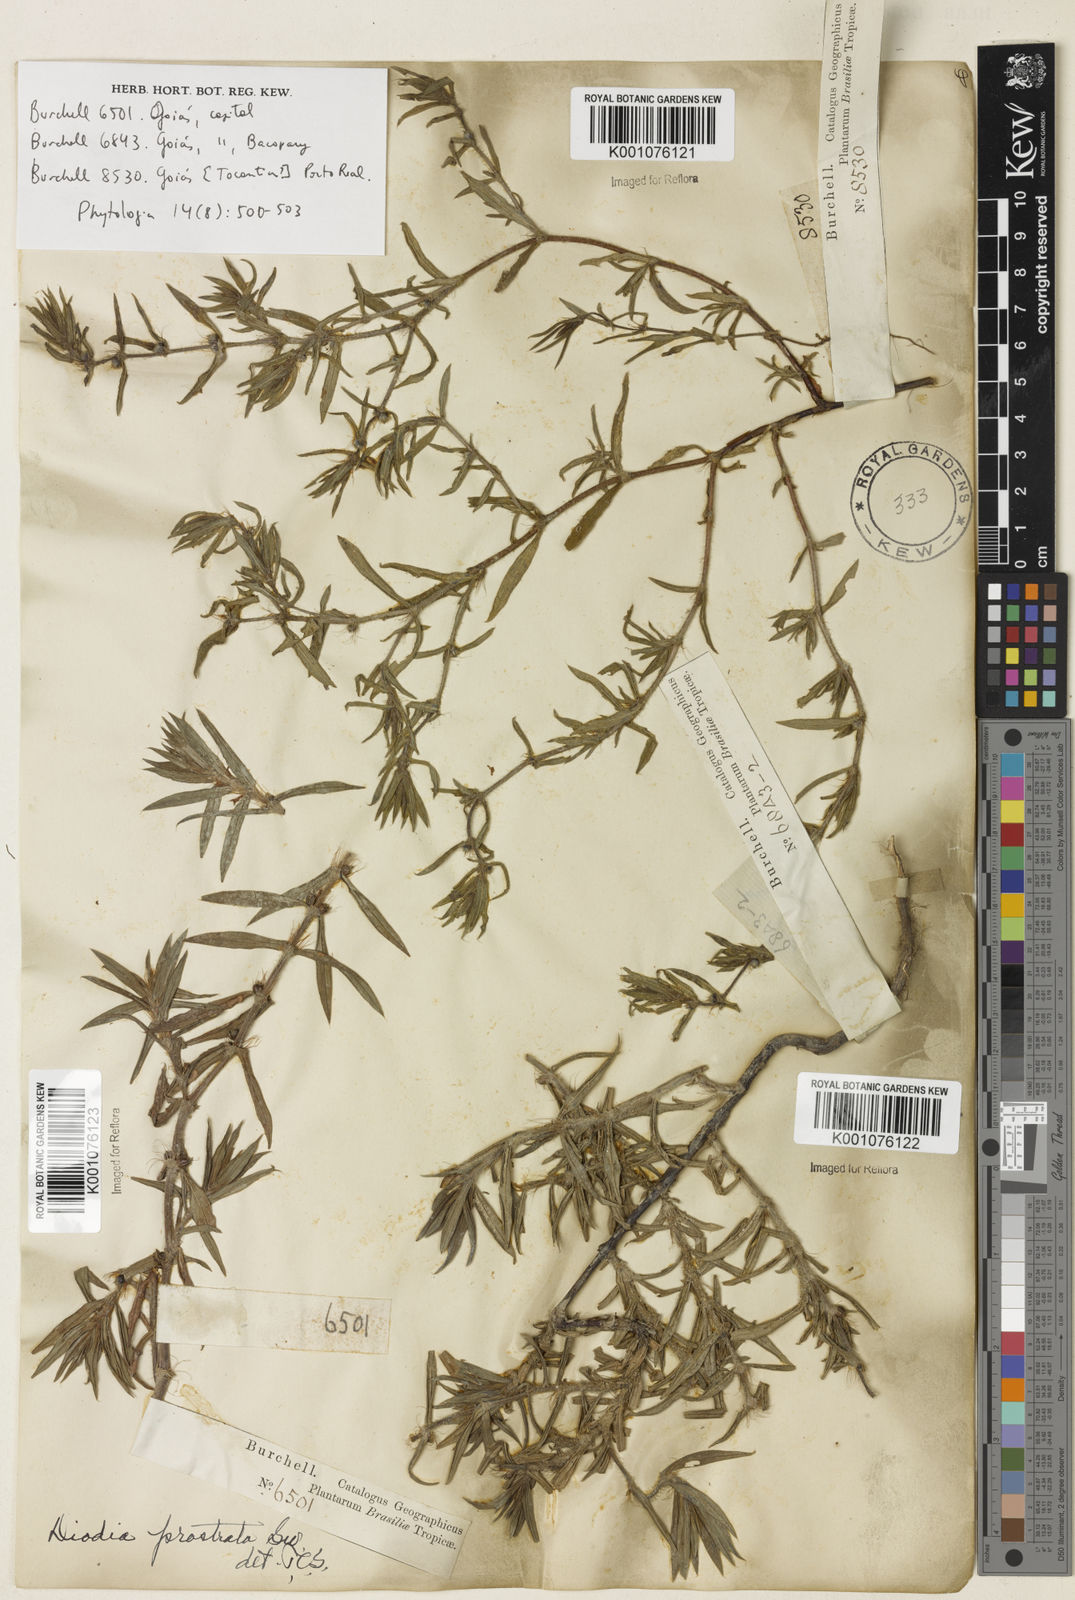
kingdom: Plantae
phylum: Tracheophyta
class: Magnoliopsida
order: Gentianales
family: Rubiaceae
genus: Hexasepalum
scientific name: Hexasepalum teres
